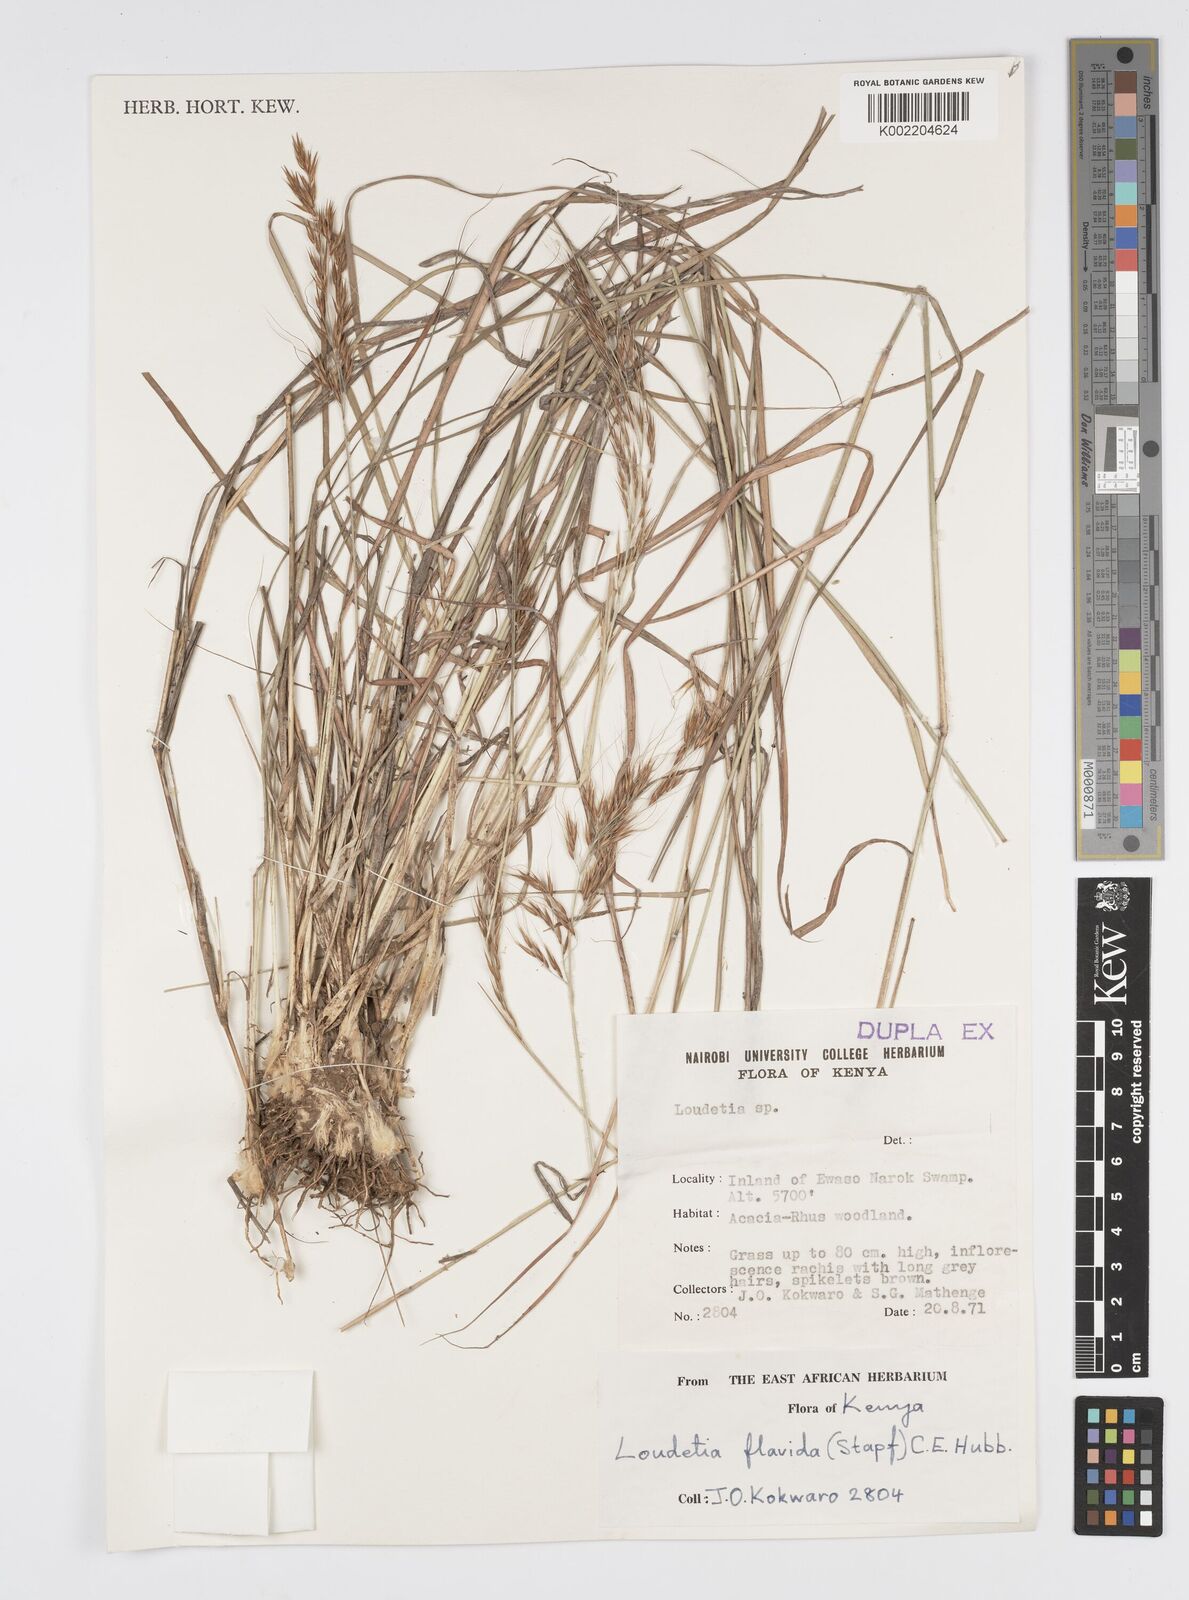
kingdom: Plantae
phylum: Tracheophyta
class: Liliopsida
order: Poales
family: Poaceae
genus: Loudetia
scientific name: Loudetia flavida
